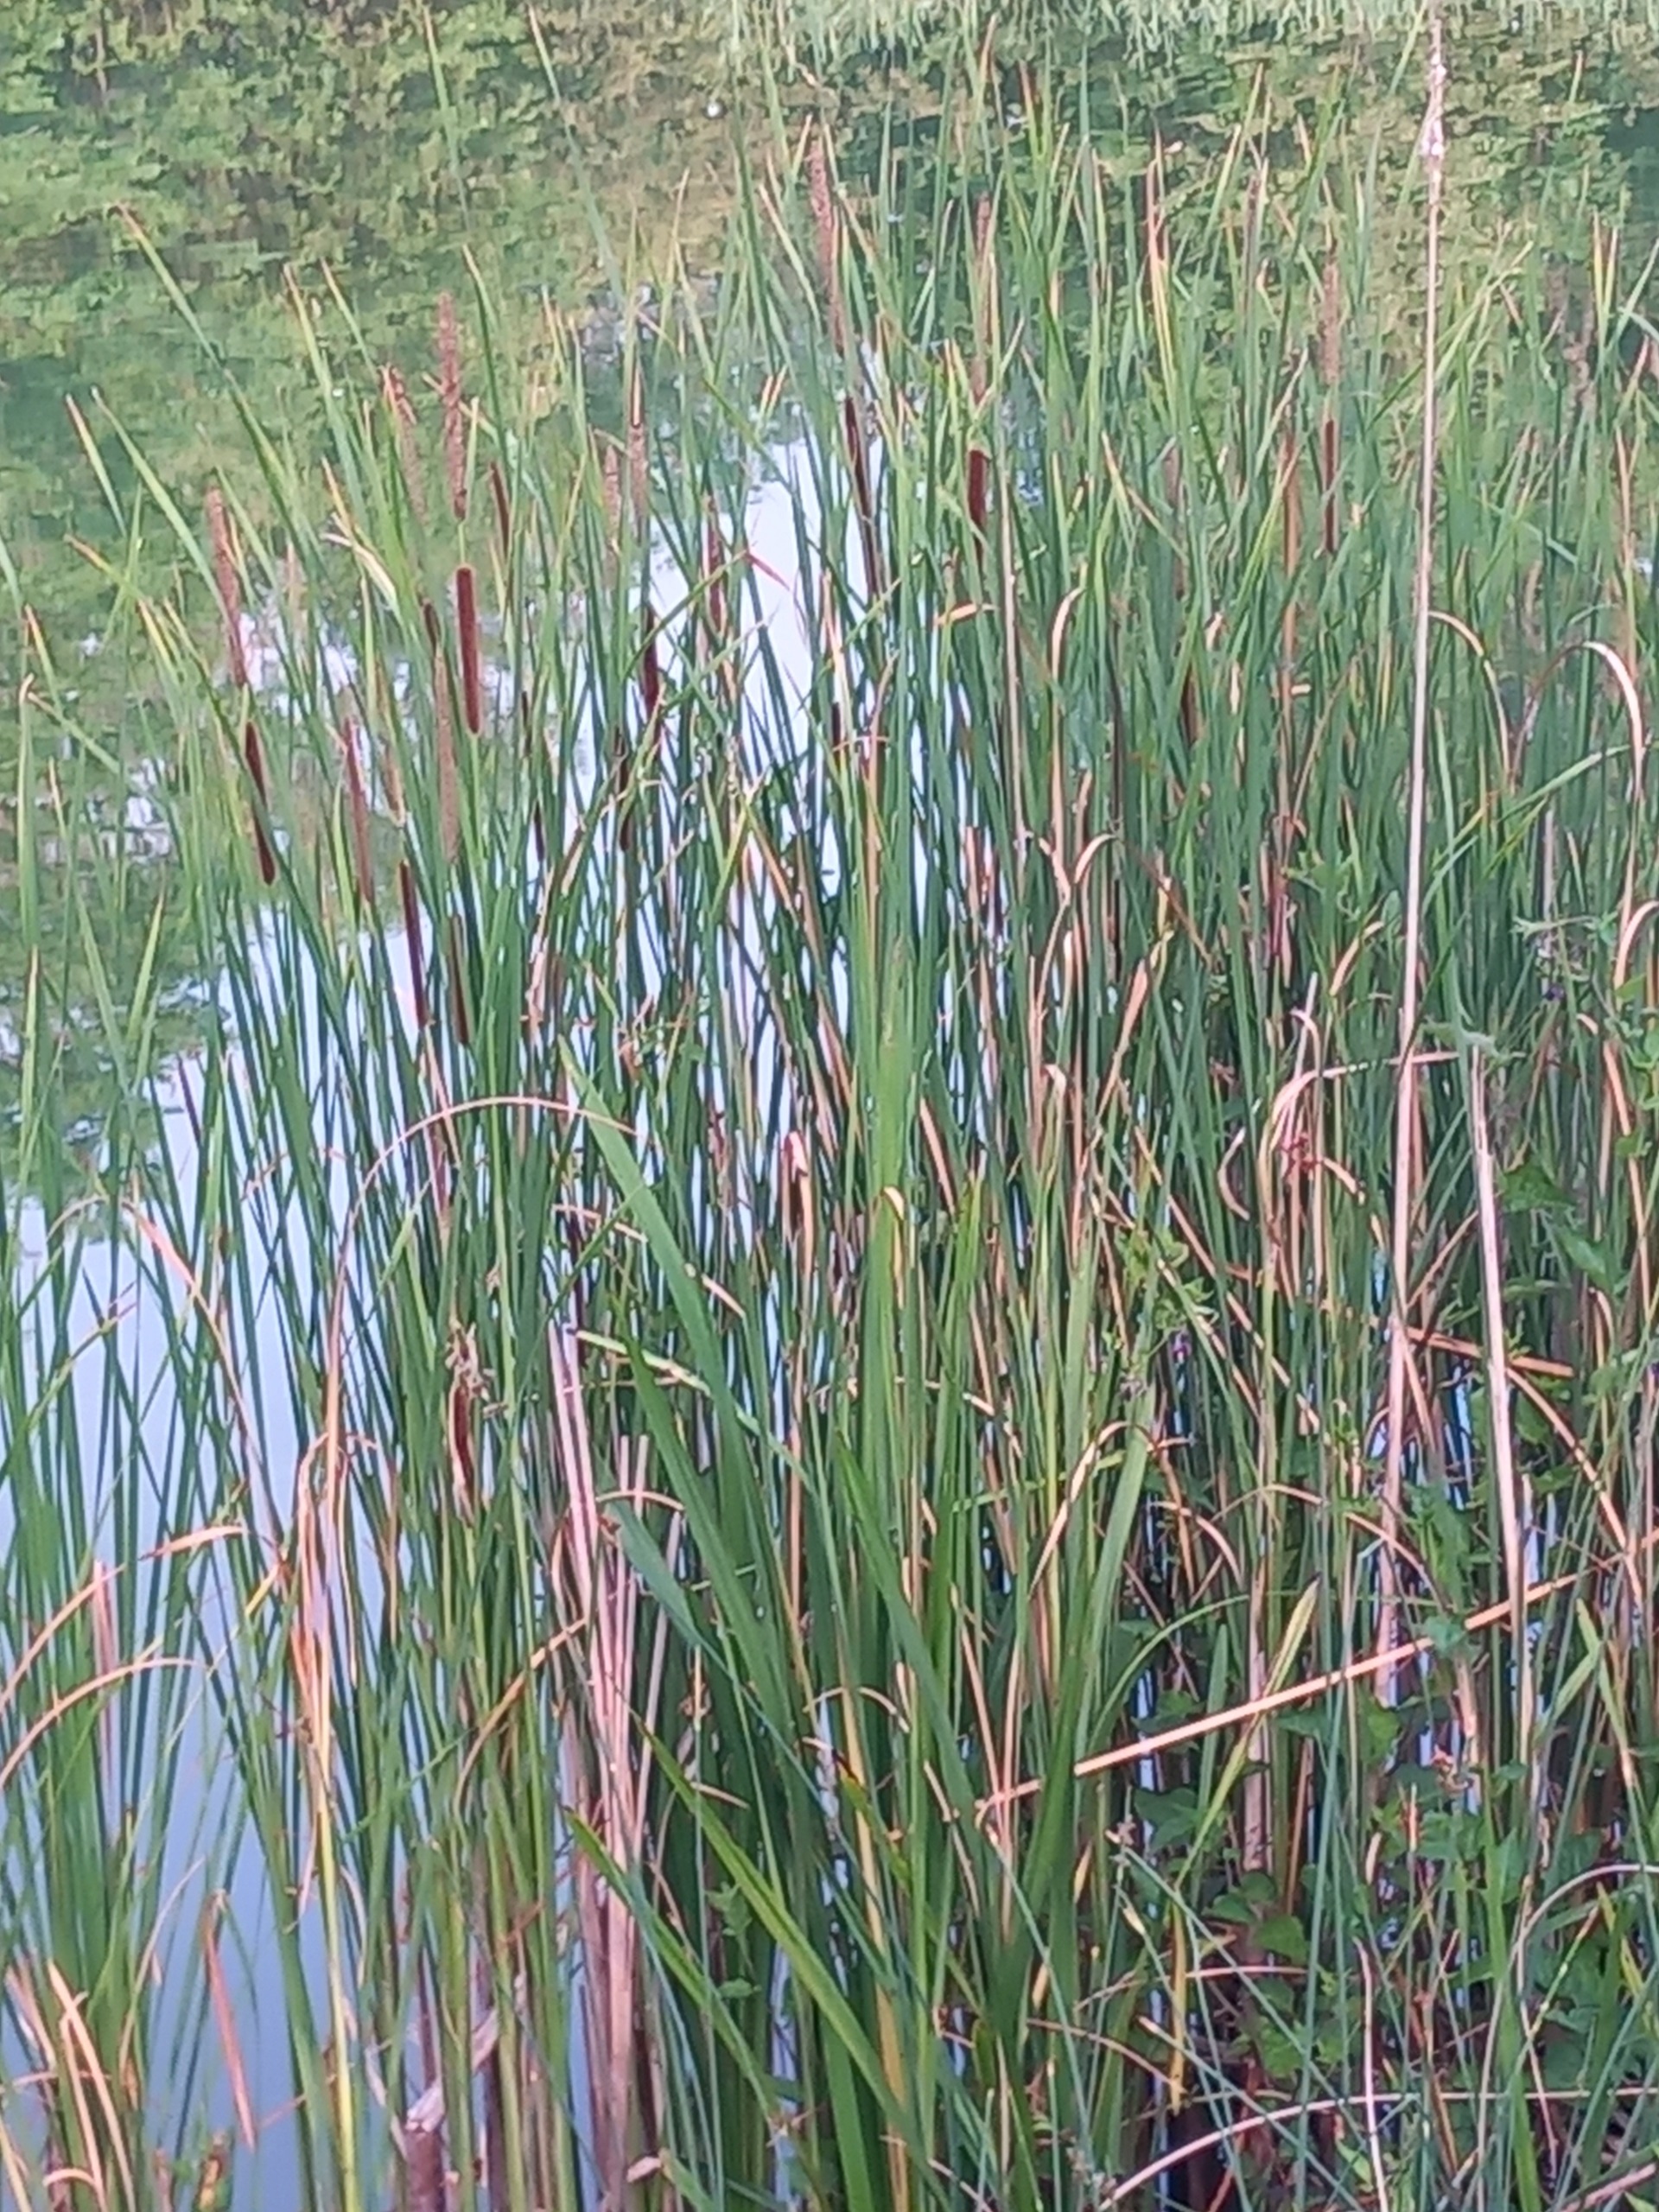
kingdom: Plantae
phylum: Tracheophyta
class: Liliopsida
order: Poales
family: Typhaceae
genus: Typha
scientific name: Typha angustifolia
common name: Smalbladet dunhammer
